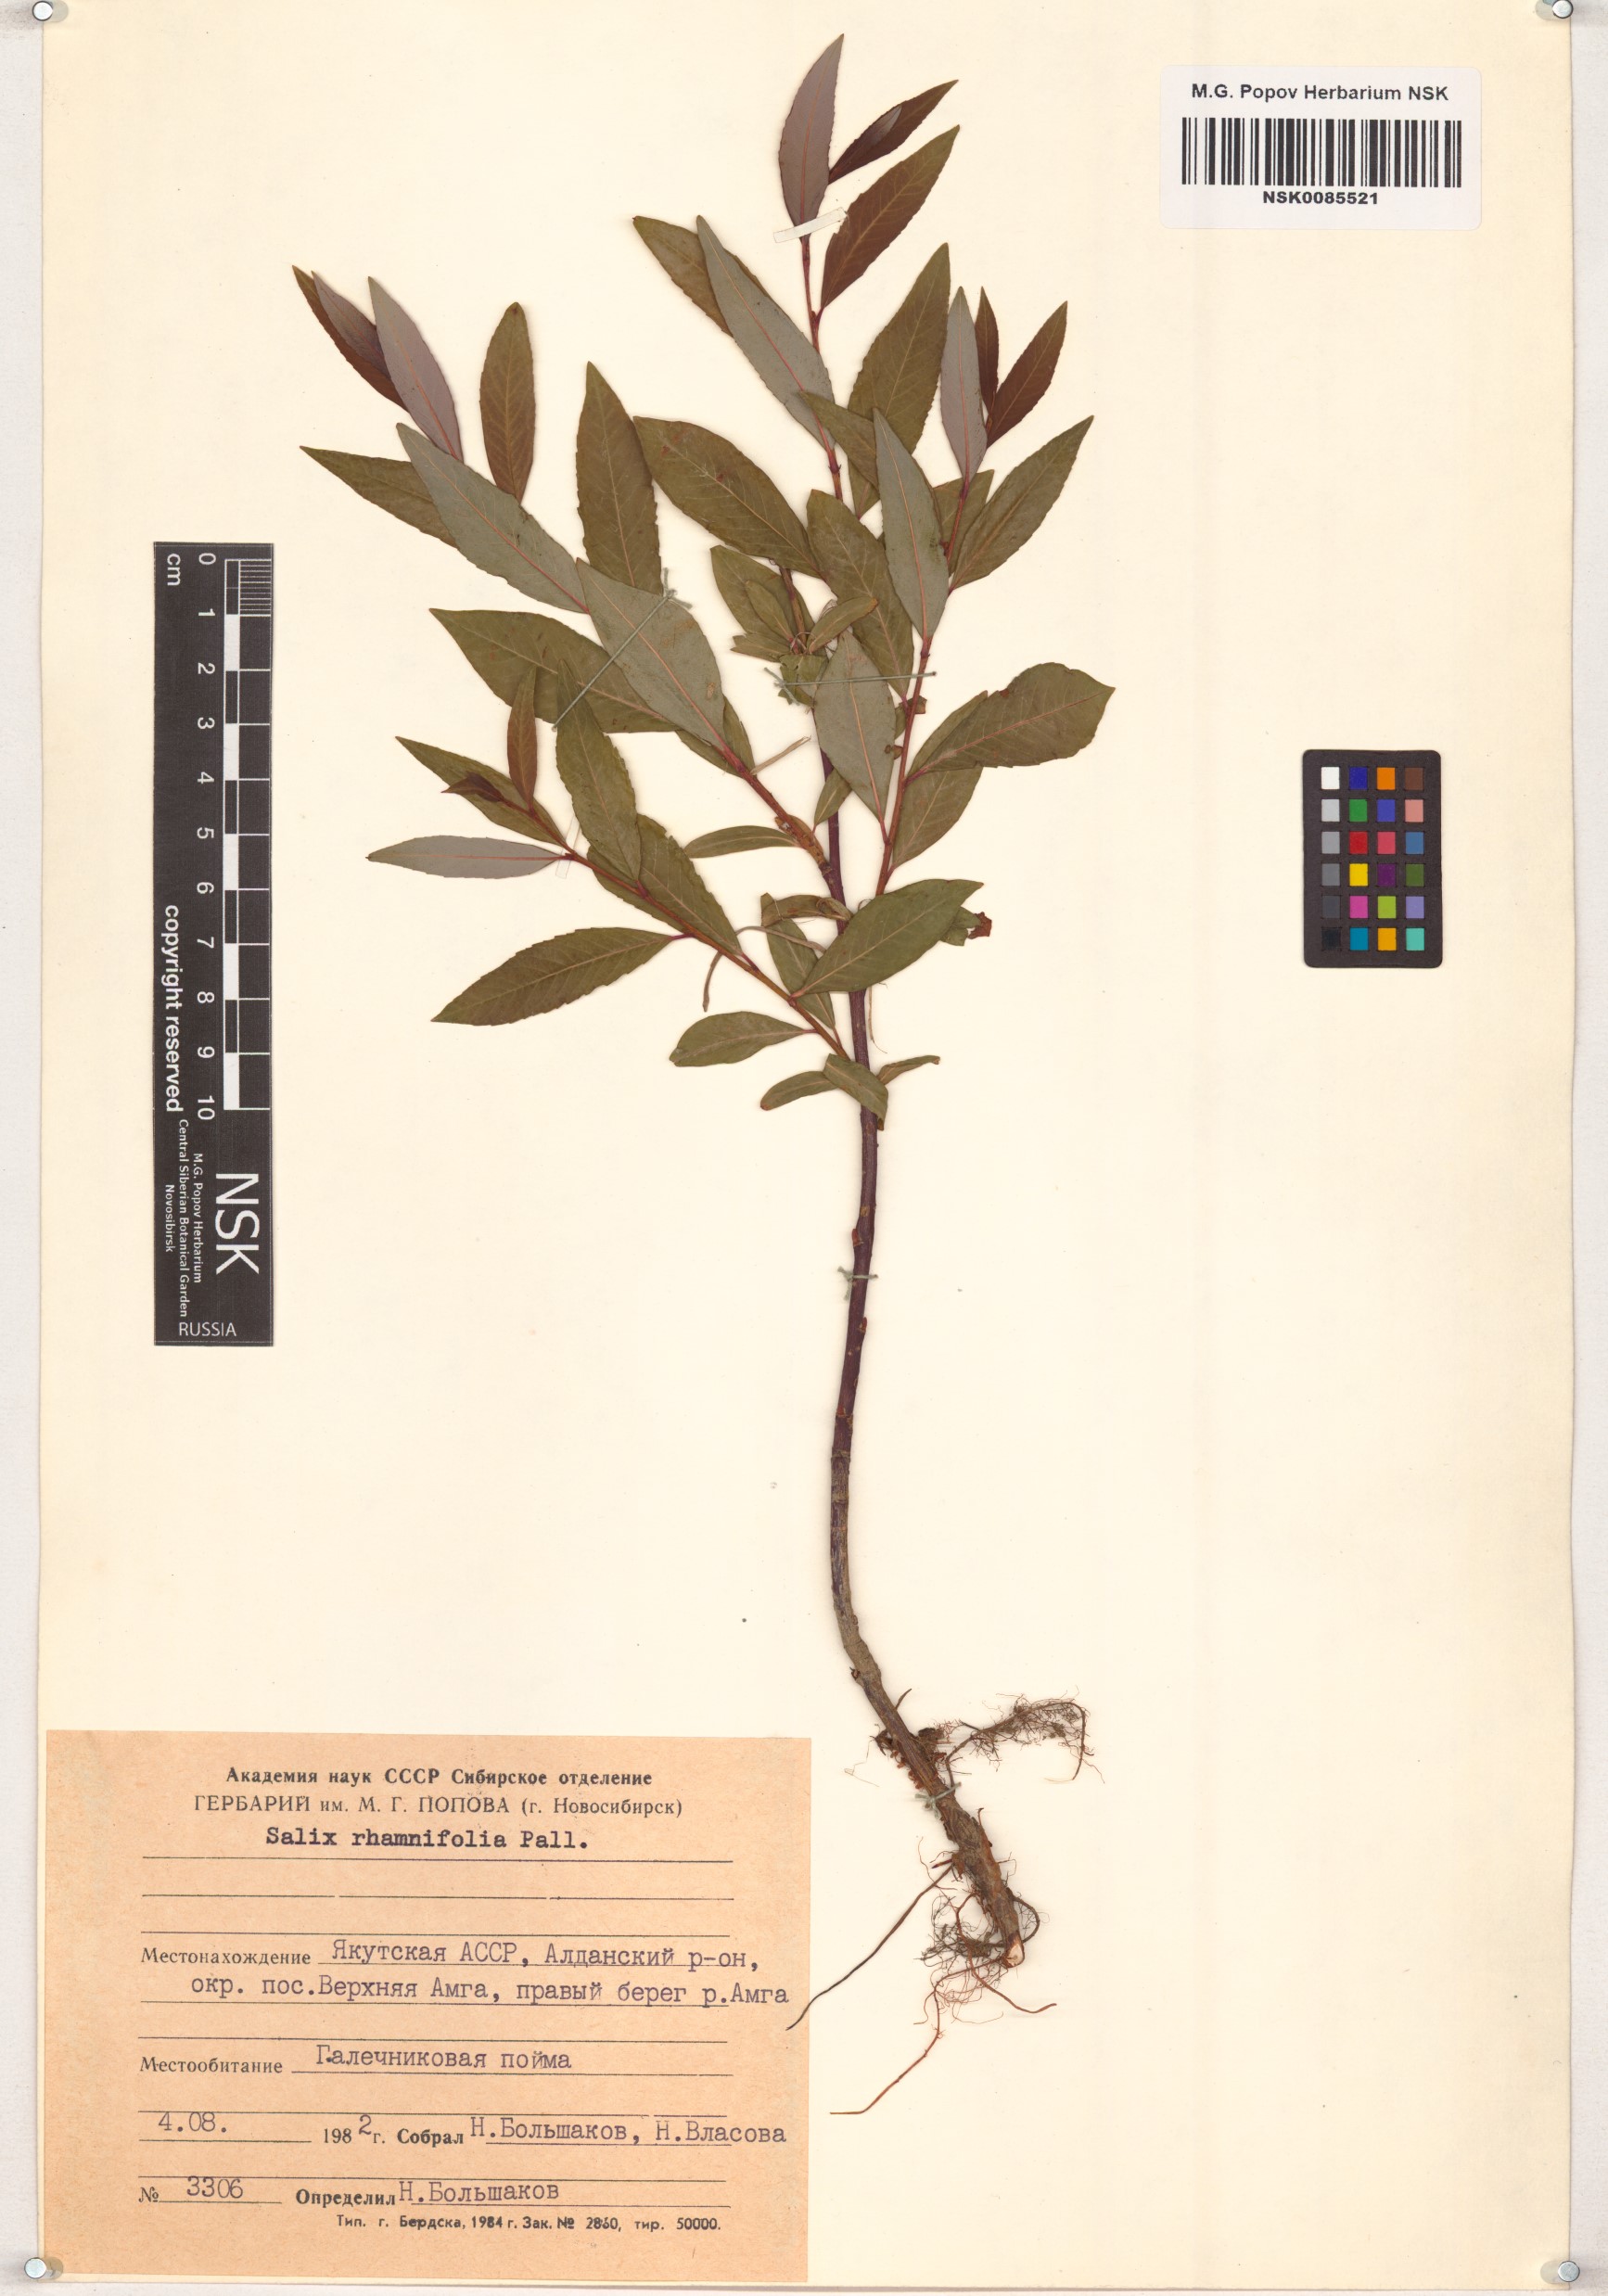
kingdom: Plantae
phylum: Tracheophyta
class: Magnoliopsida
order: Malpighiales
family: Salicaceae
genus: Salix
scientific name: Salix rhamnifolia
